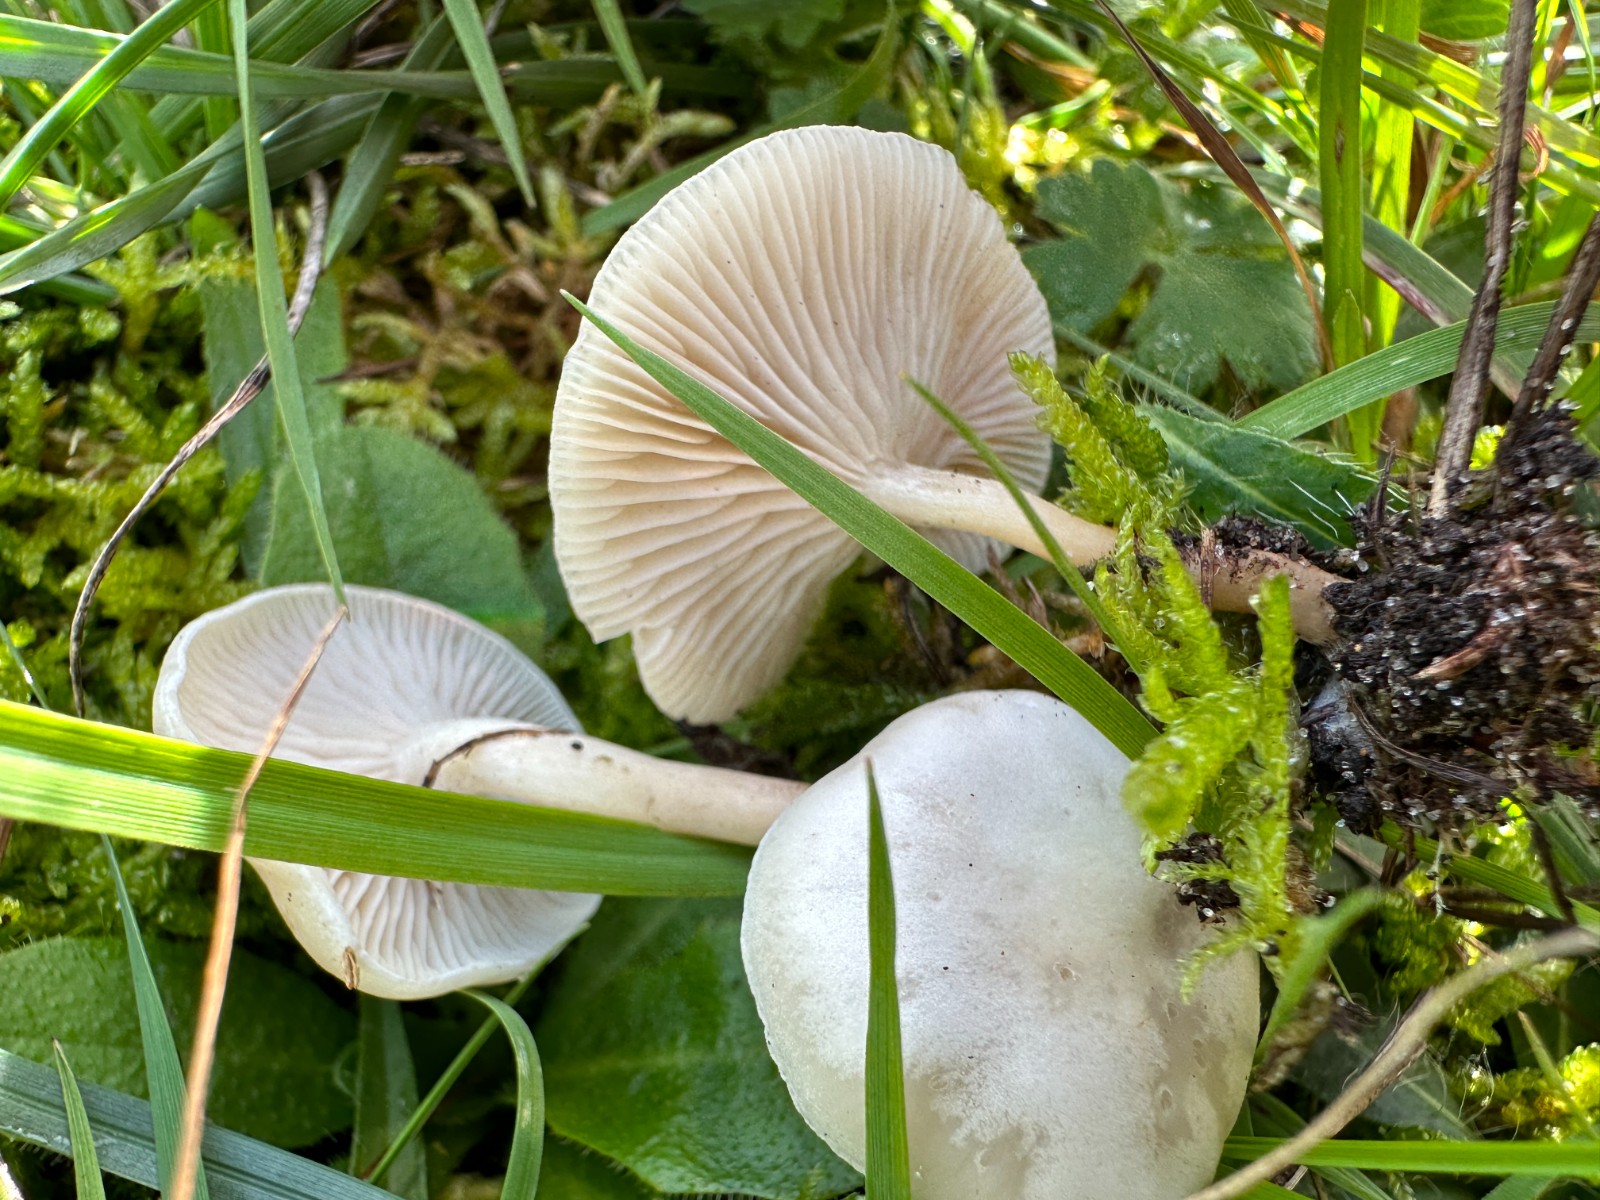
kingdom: Fungi
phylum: Basidiomycota
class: Agaricomycetes
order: Agaricales
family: Tricholomataceae
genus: Clitocybe
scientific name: Clitocybe
